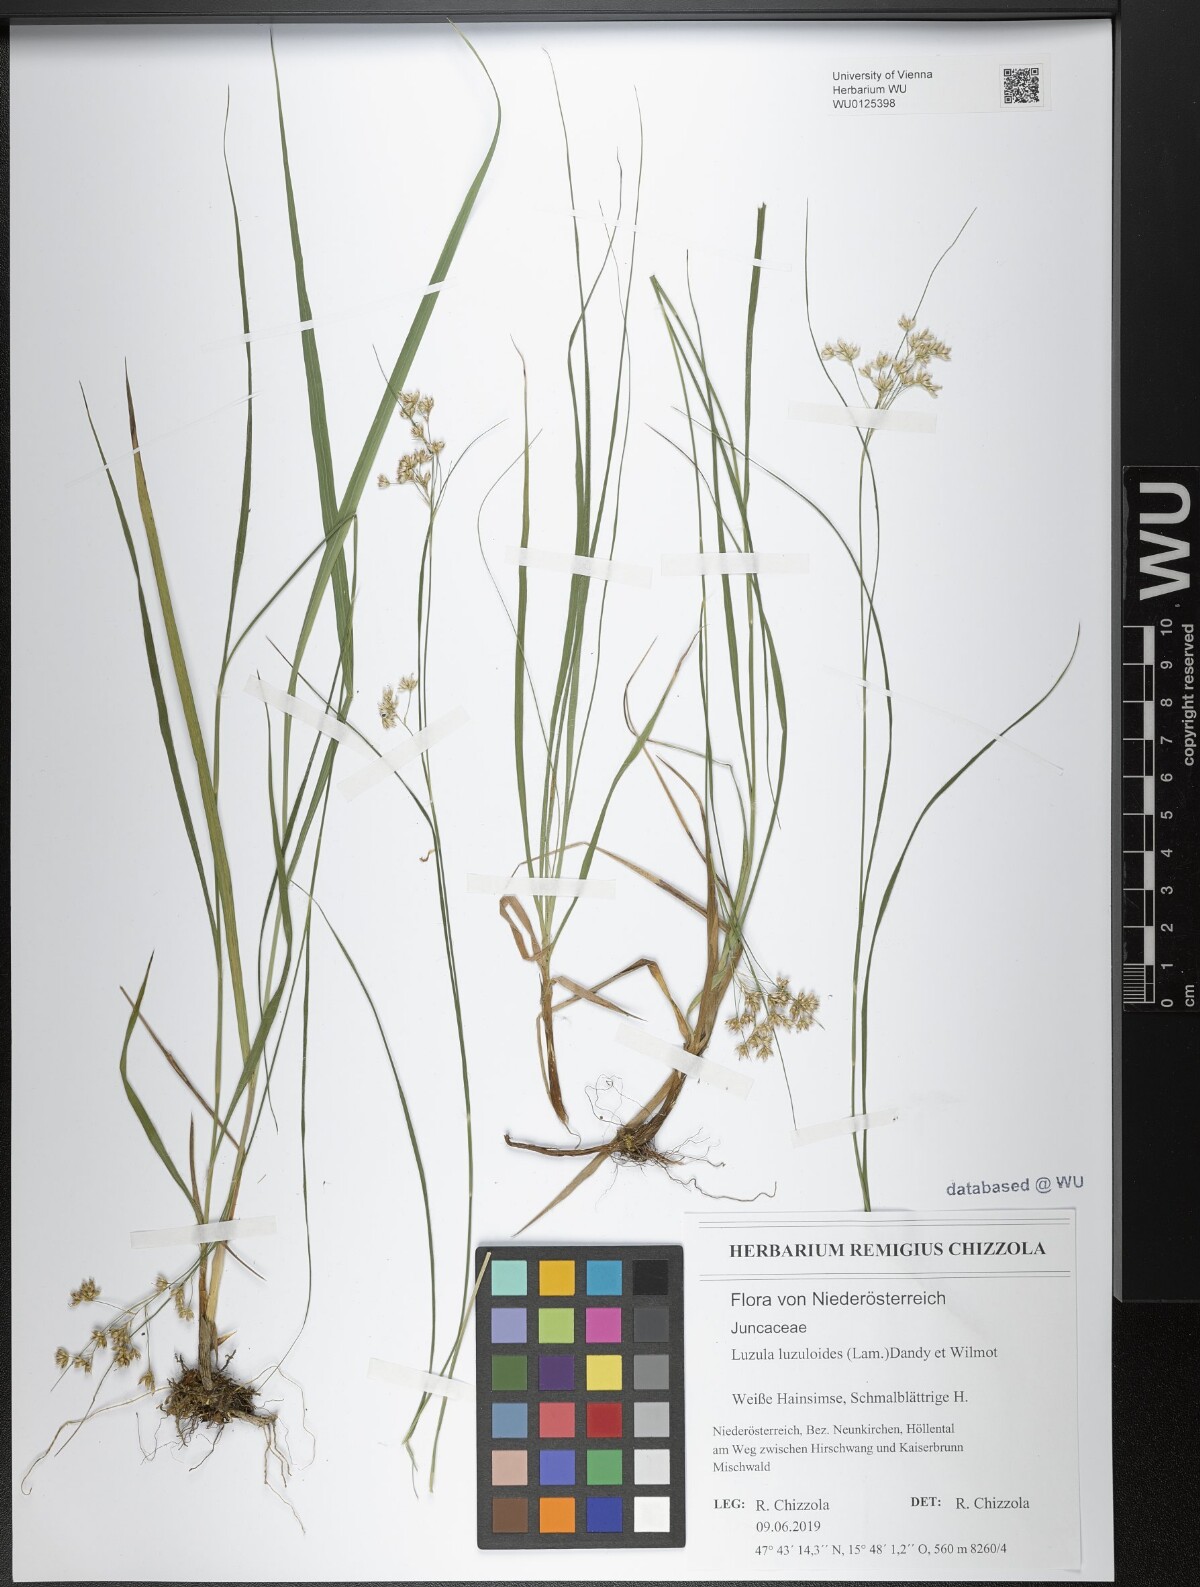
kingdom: Plantae
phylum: Tracheophyta
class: Liliopsida
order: Poales
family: Juncaceae
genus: Luzula
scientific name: Luzula luzuloides
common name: White wood-rush
